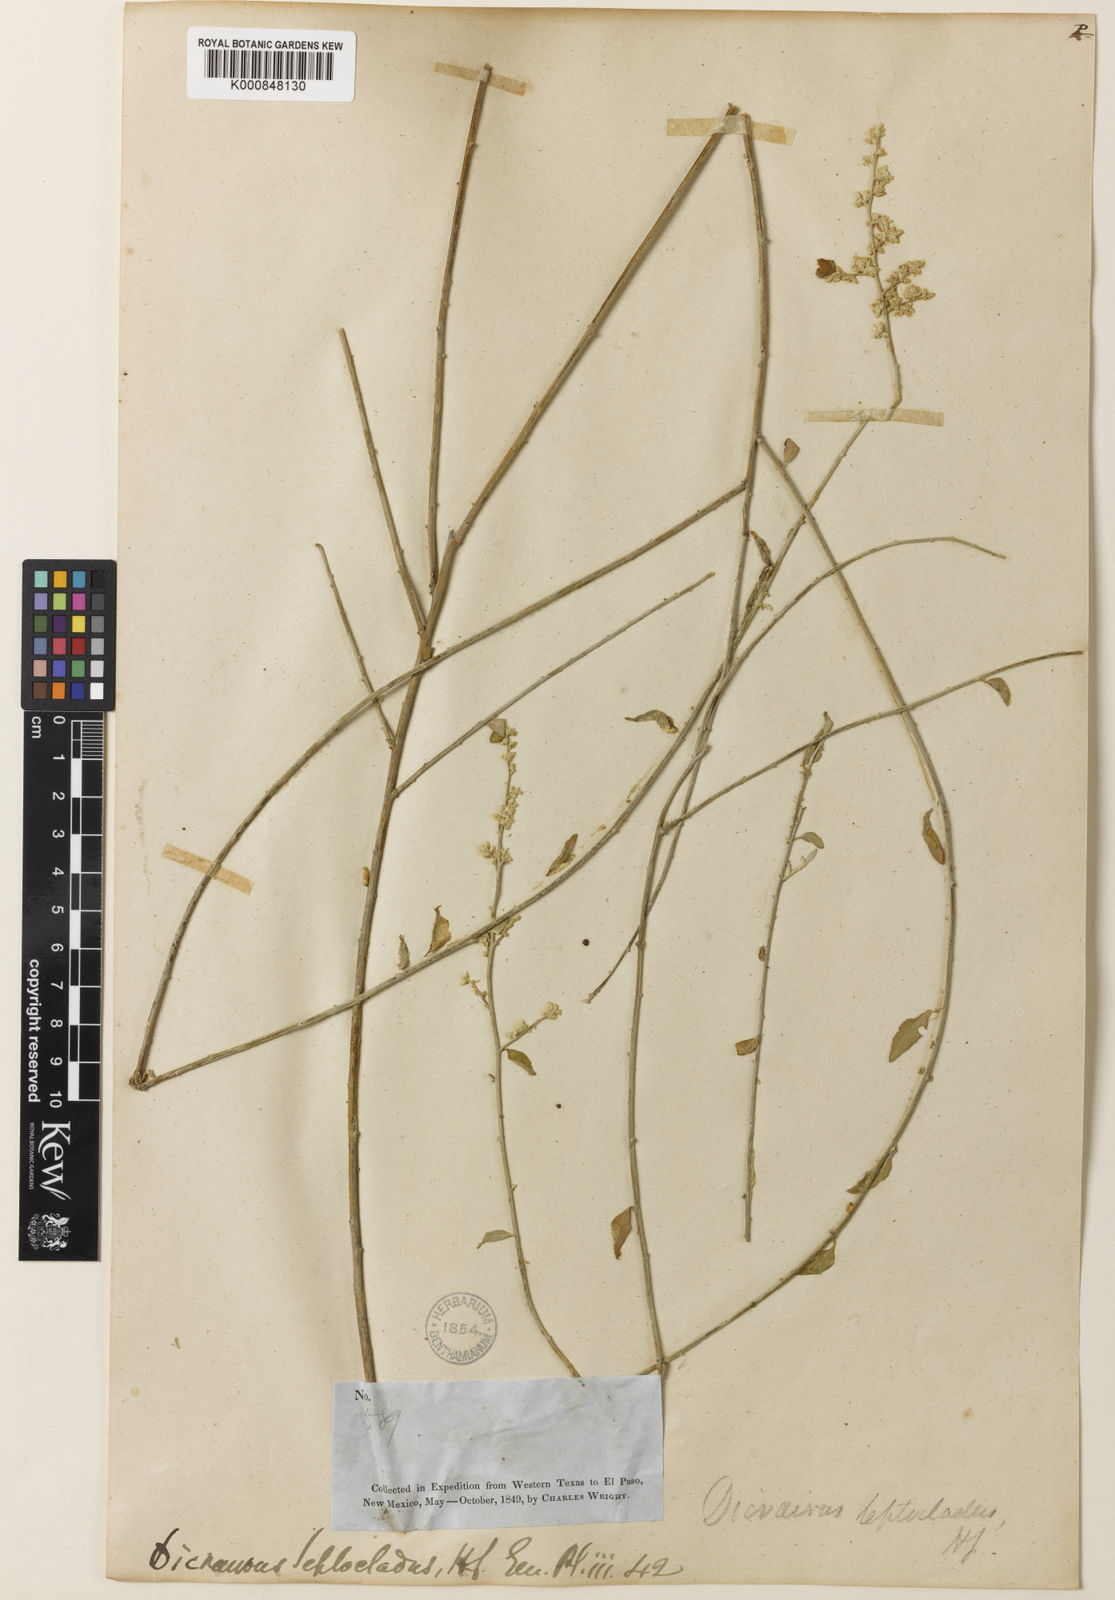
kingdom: Plantae
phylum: Tracheophyta
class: Magnoliopsida
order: Caryophyllales
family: Amaranthaceae
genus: Iresine
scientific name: Iresine leptoclada
